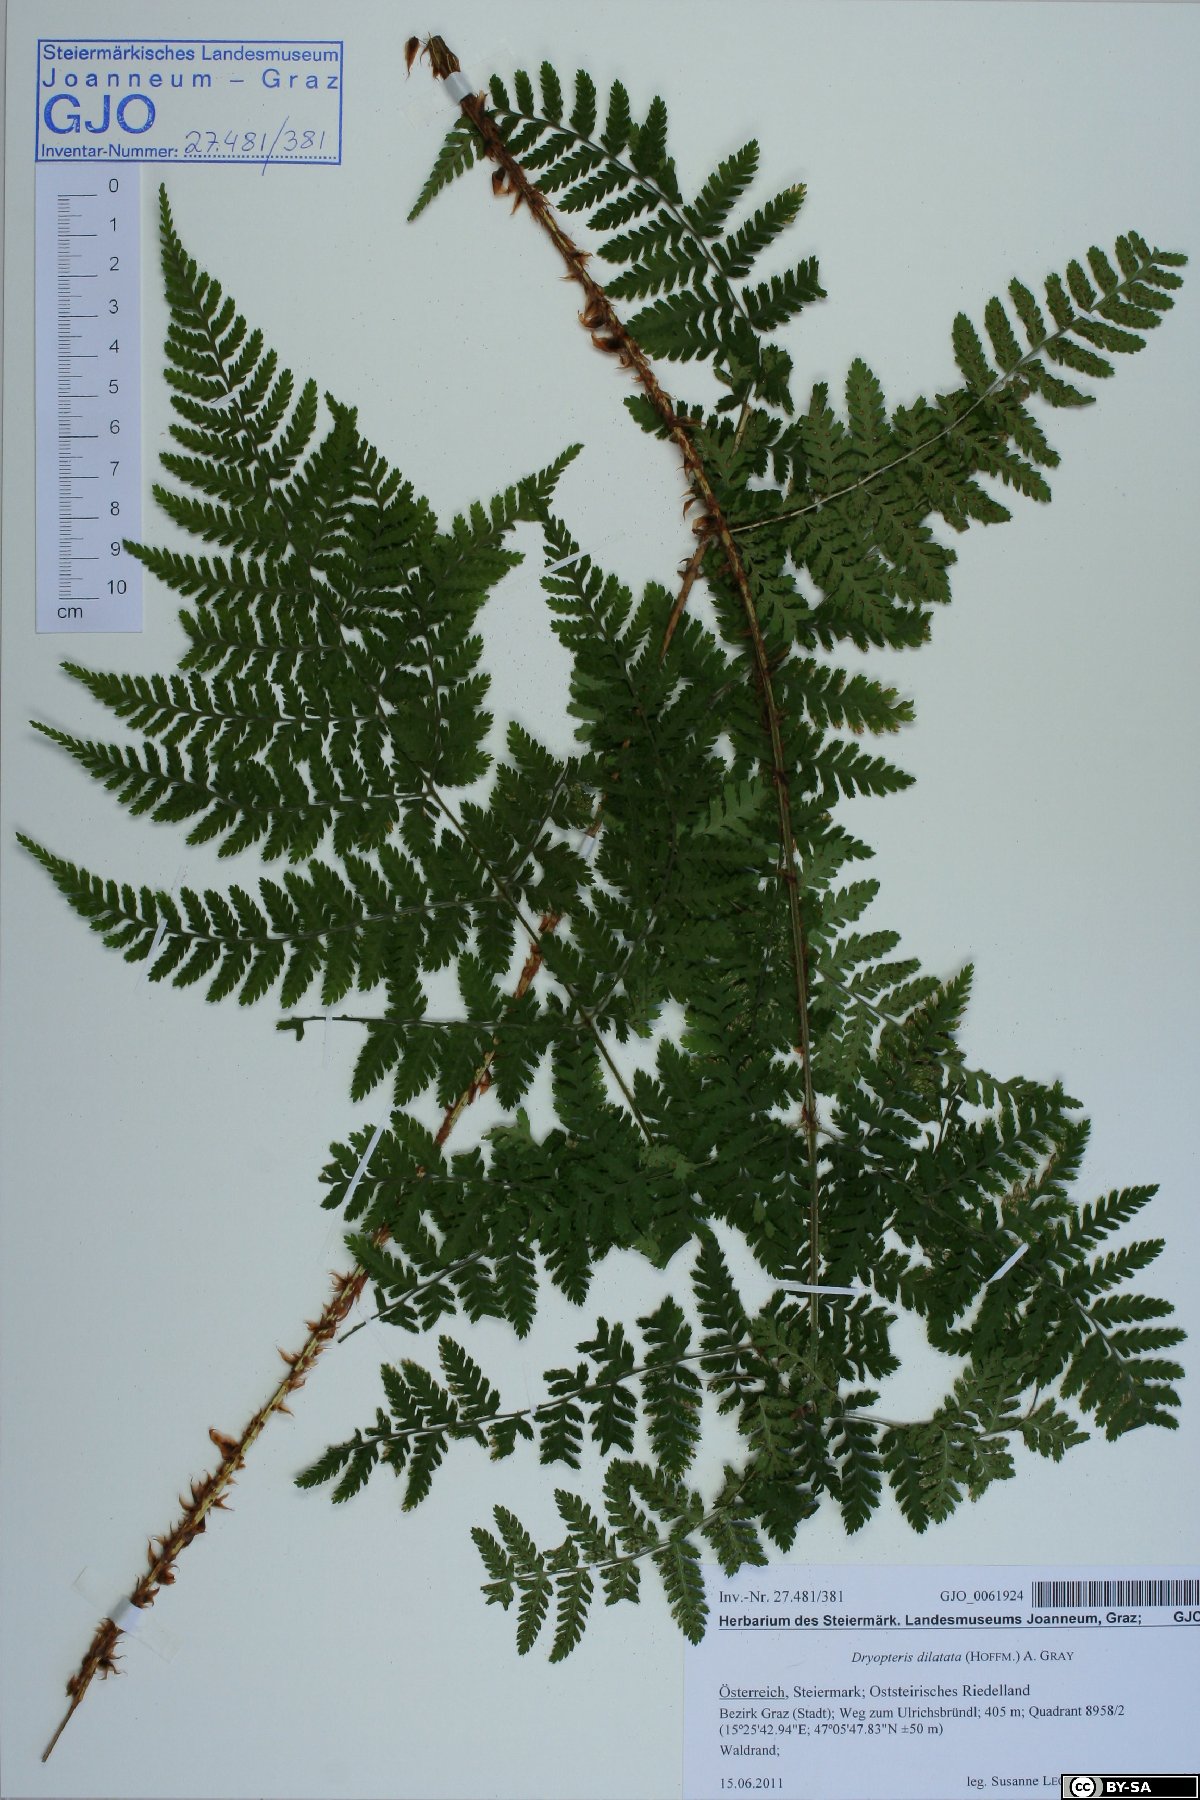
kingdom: Plantae
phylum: Tracheophyta
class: Polypodiopsida
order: Polypodiales
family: Dryopteridaceae
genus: Dryopteris
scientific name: Dryopteris dilatata
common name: Broad buckler-fern
